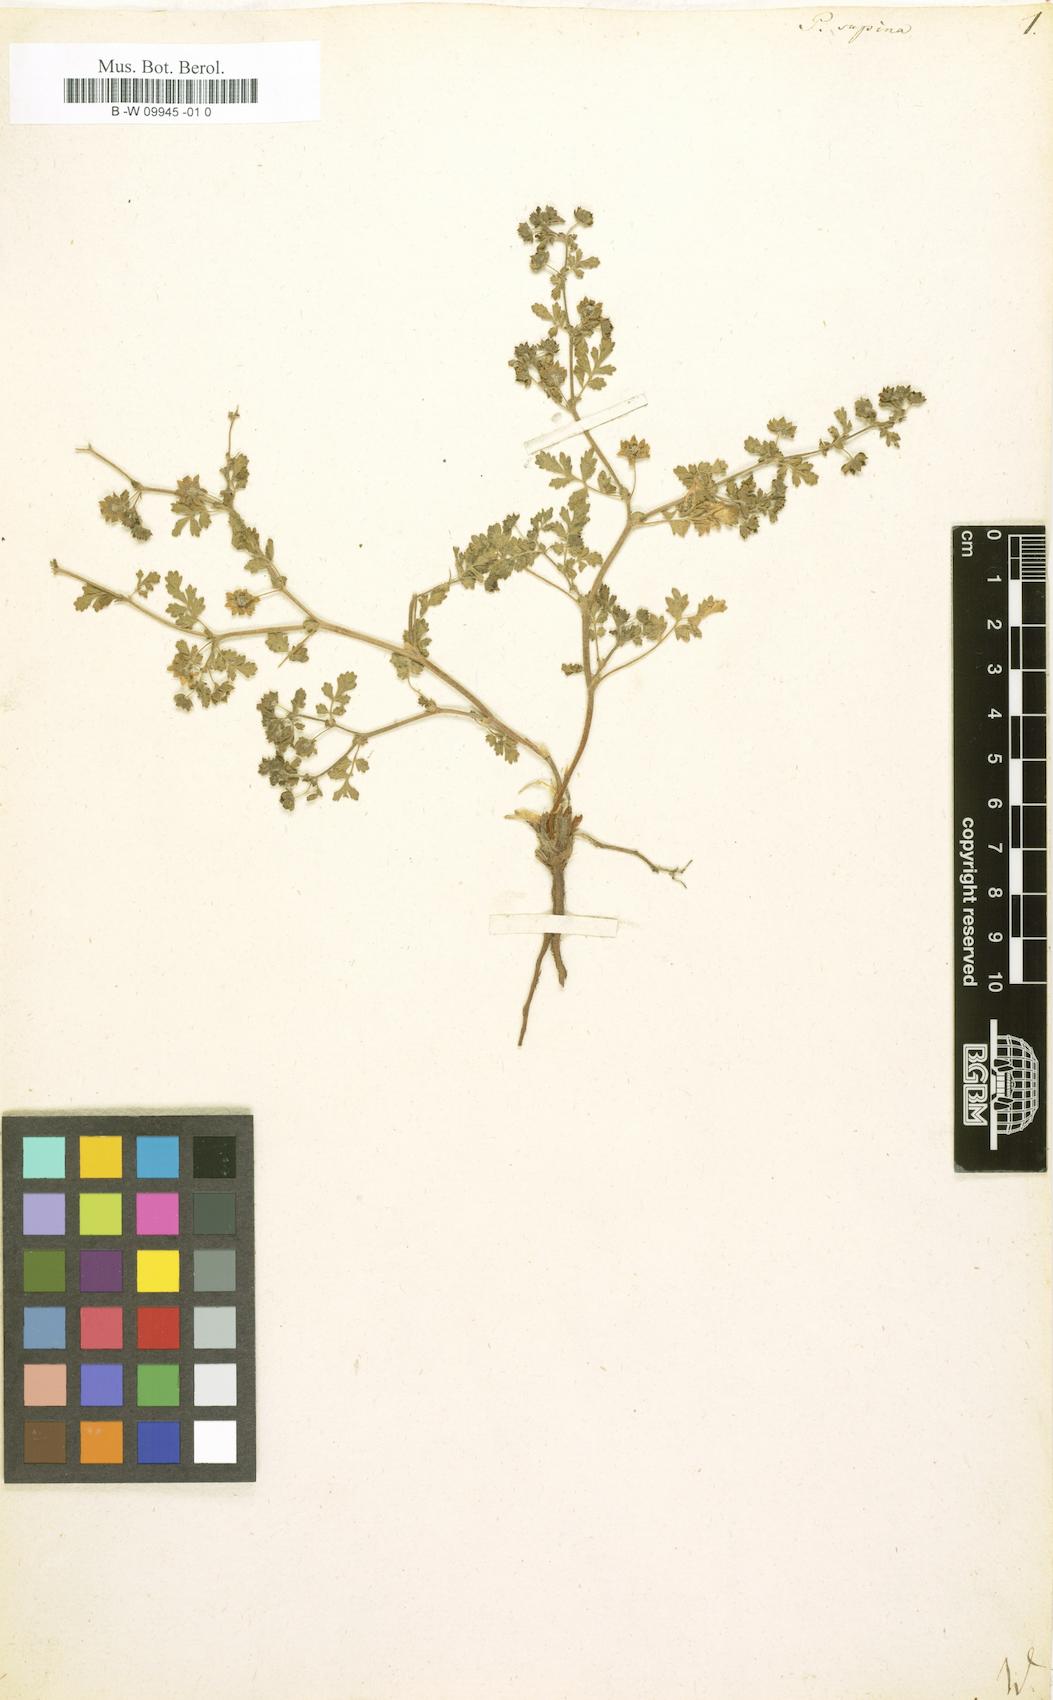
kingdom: Plantae
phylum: Tracheophyta
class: Magnoliopsida
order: Rosales
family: Rosaceae
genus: Potentilla
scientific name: Potentilla supina
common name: Prostrate cinquefoil
